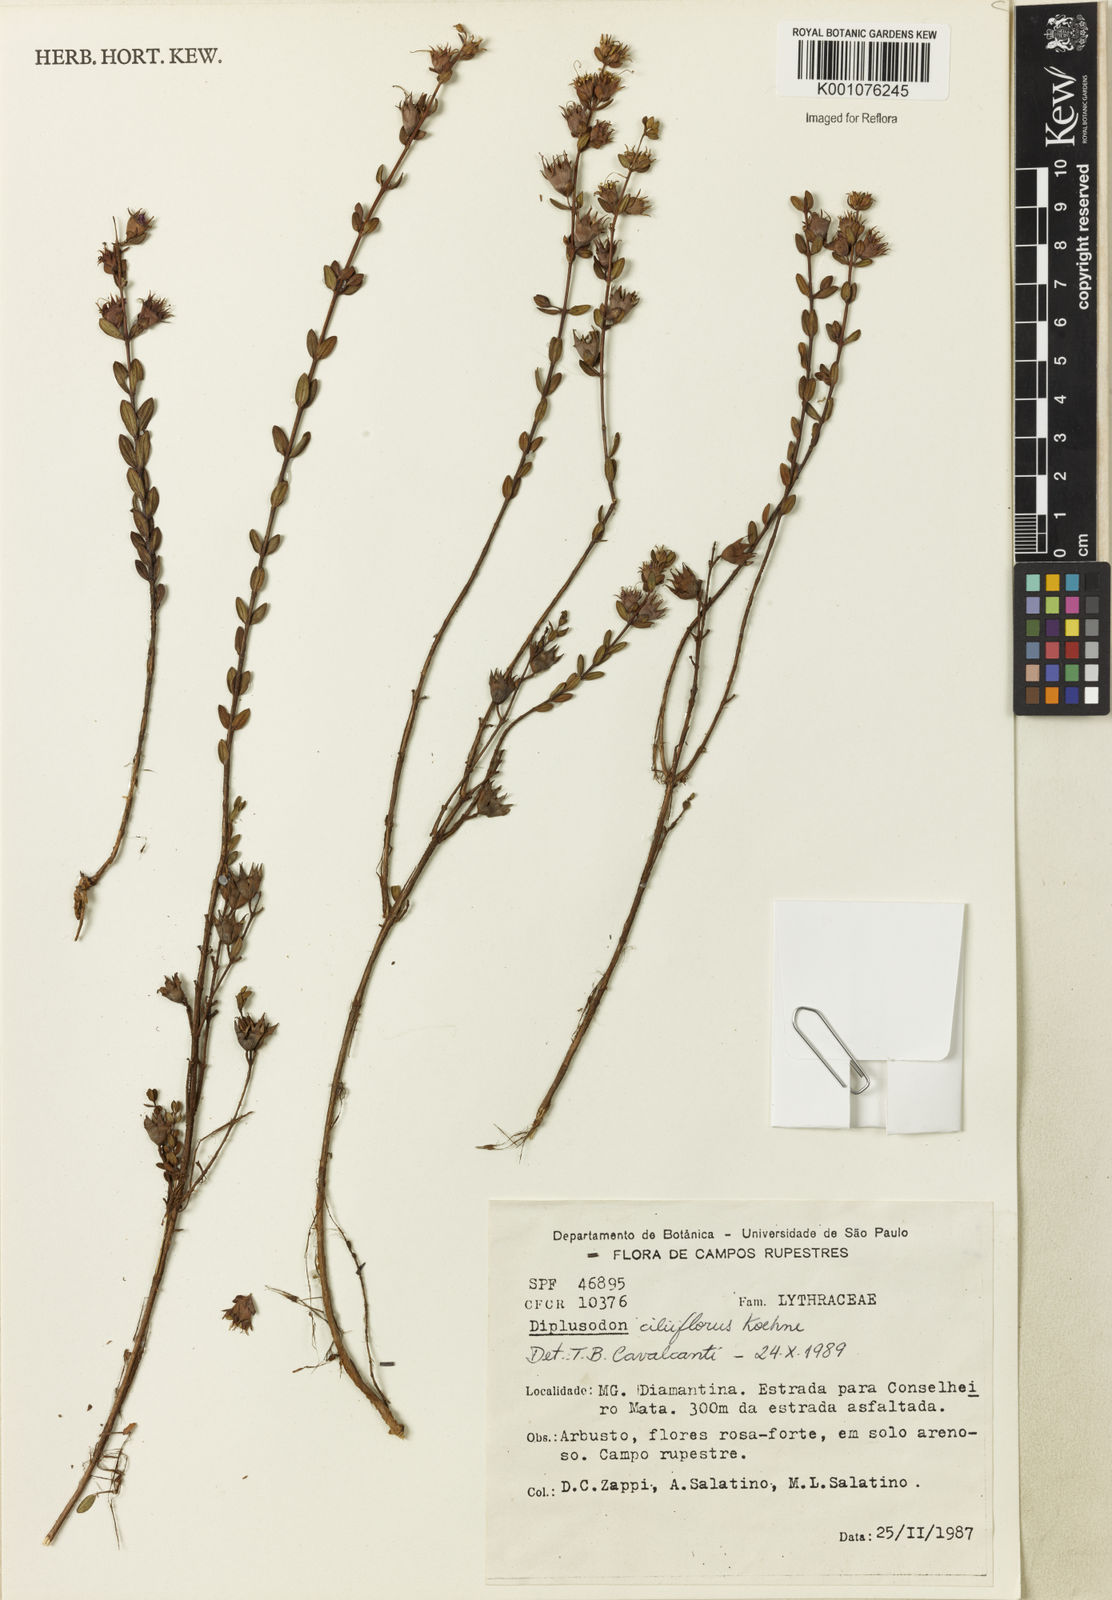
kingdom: Plantae
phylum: Tracheophyta
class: Magnoliopsida
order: Myrtales
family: Lythraceae
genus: Diplusodon
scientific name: Diplusodon ciliiflorus
